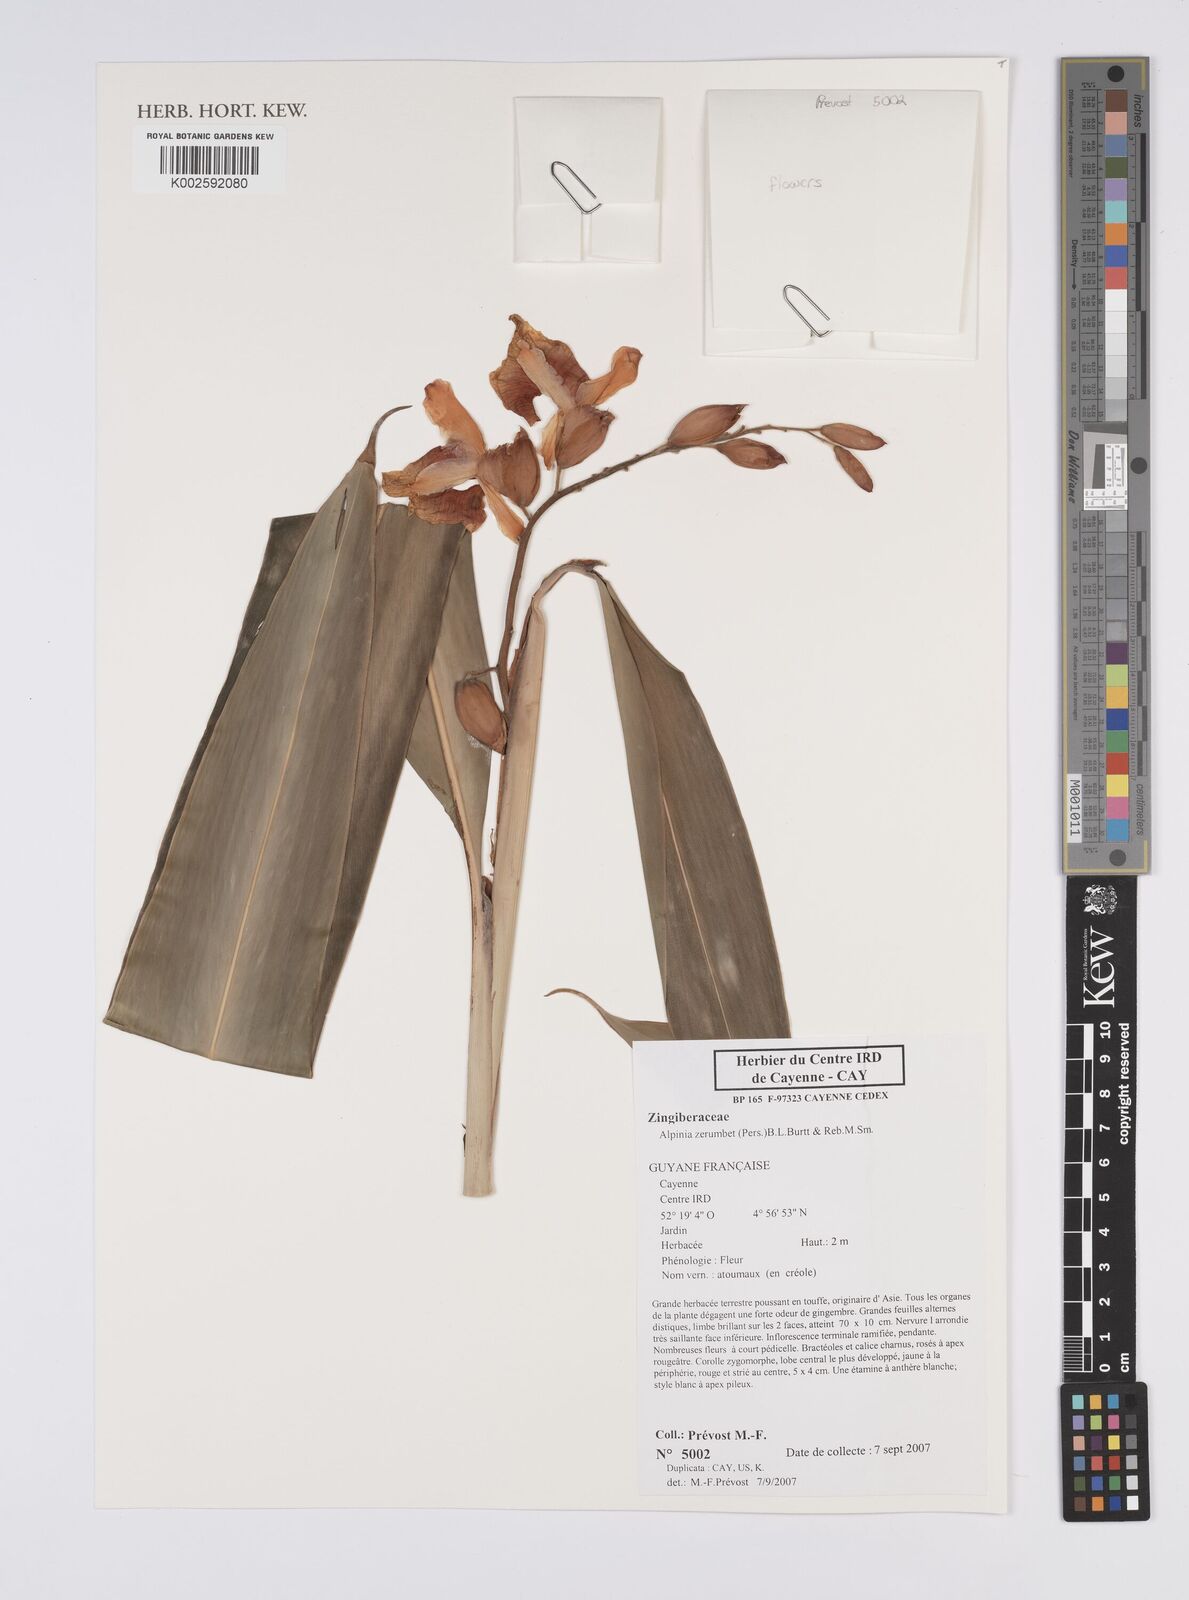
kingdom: Plantae
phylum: Tracheophyta
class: Liliopsida
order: Zingiberales
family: Zingiberaceae
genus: Alpinia
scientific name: Alpinia zerumbet
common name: Shellplant
